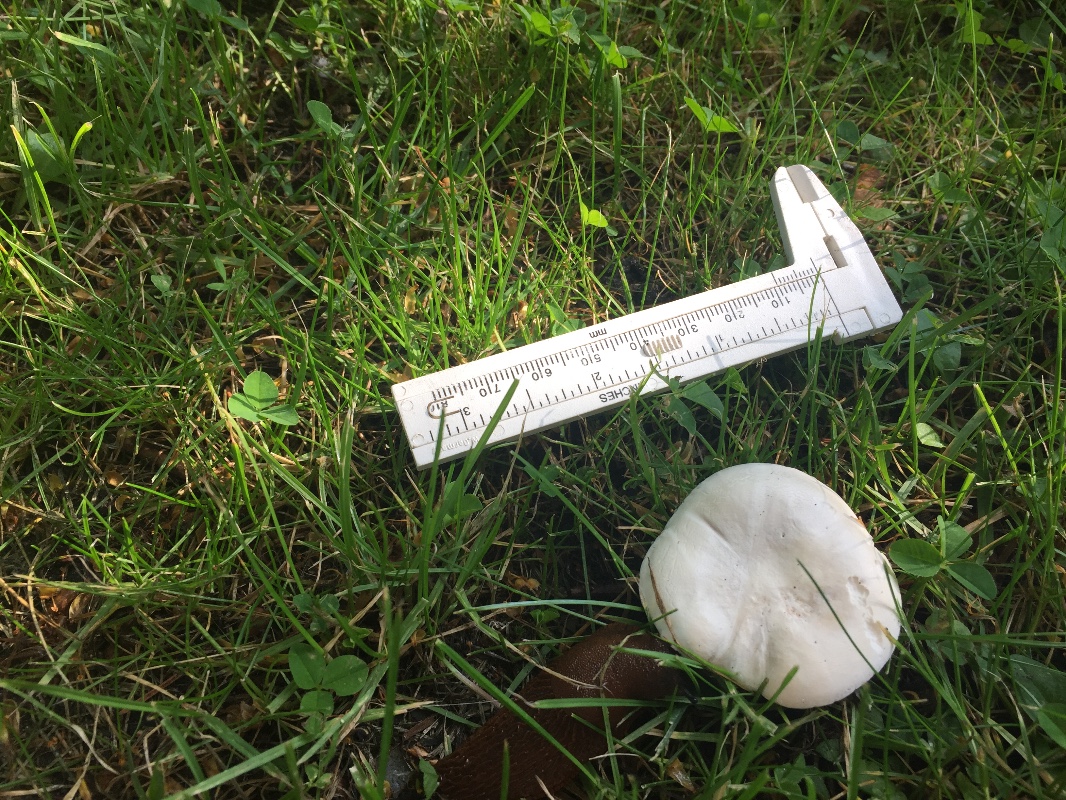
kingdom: Fungi
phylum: Basidiomycota
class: Agaricomycetes
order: Agaricales
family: Entolomataceae
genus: Clitopilus
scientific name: Clitopilus prunulus
